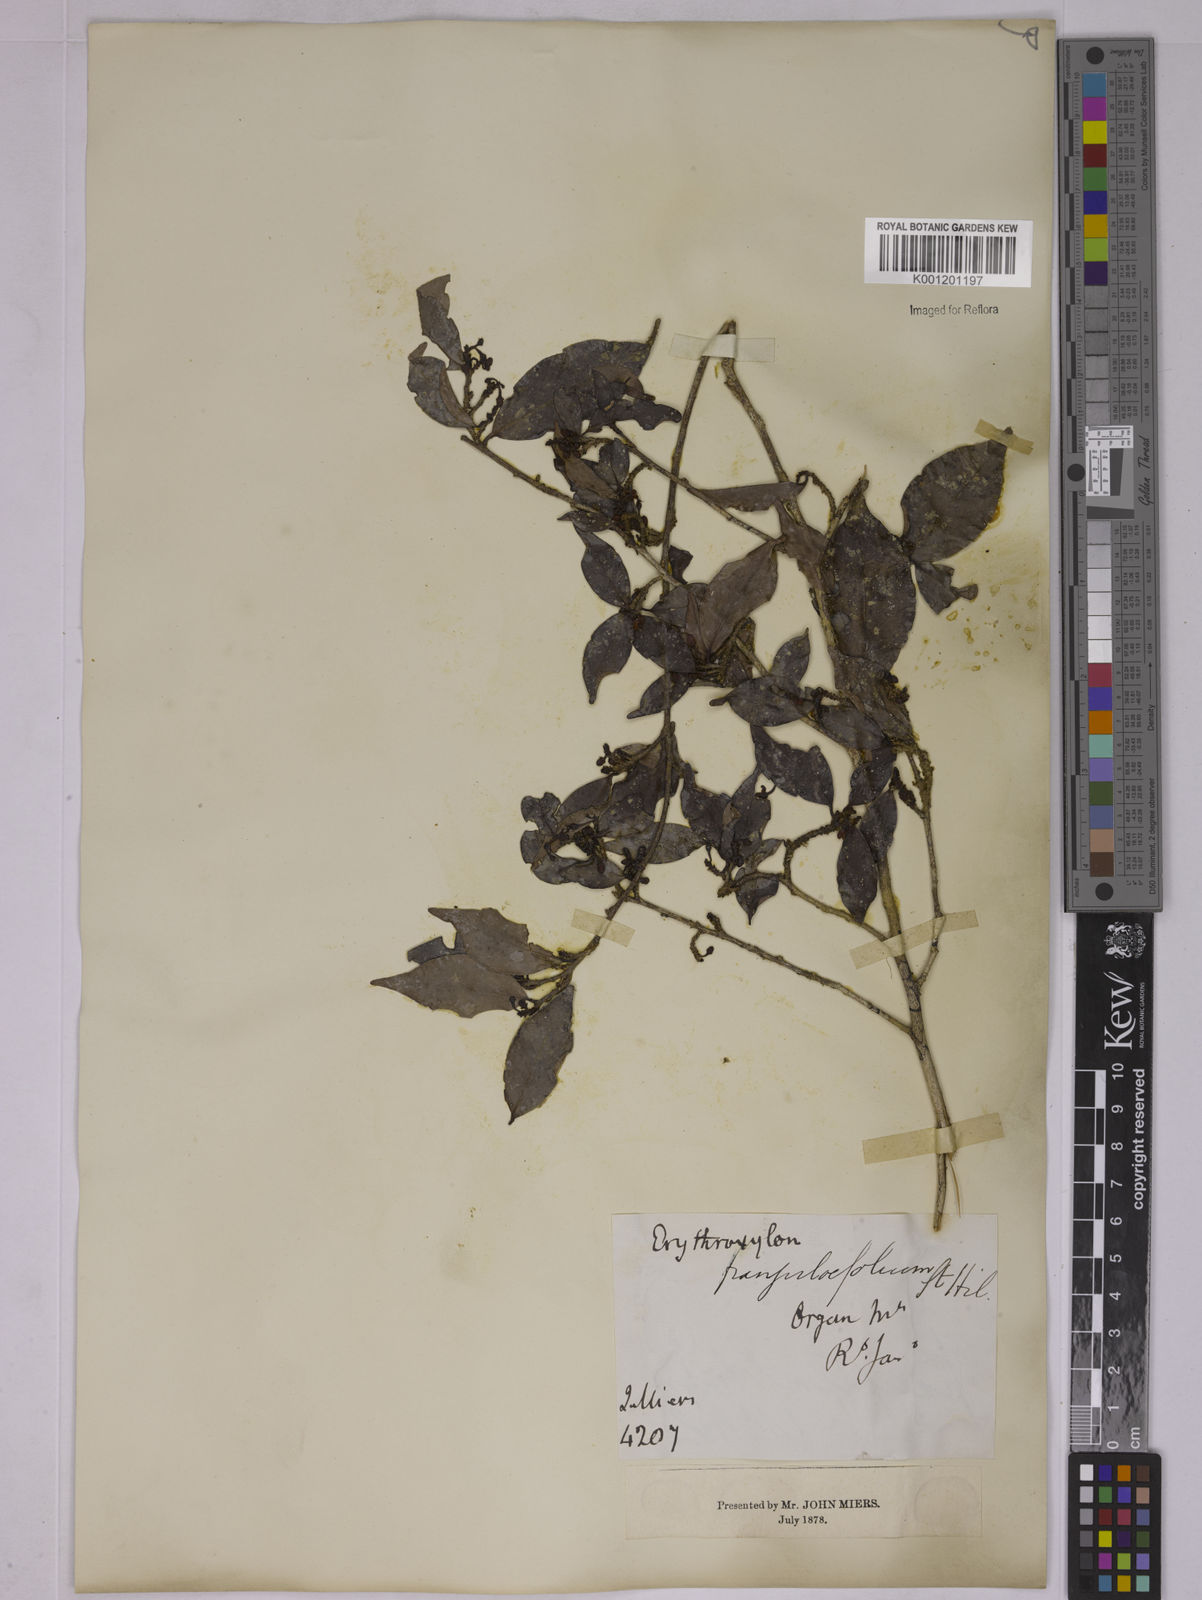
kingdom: Plantae
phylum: Tracheophyta
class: Magnoliopsida
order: Malpighiales
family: Erythroxylaceae
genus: Erythroxylum
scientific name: Erythroxylum frangulifolium
